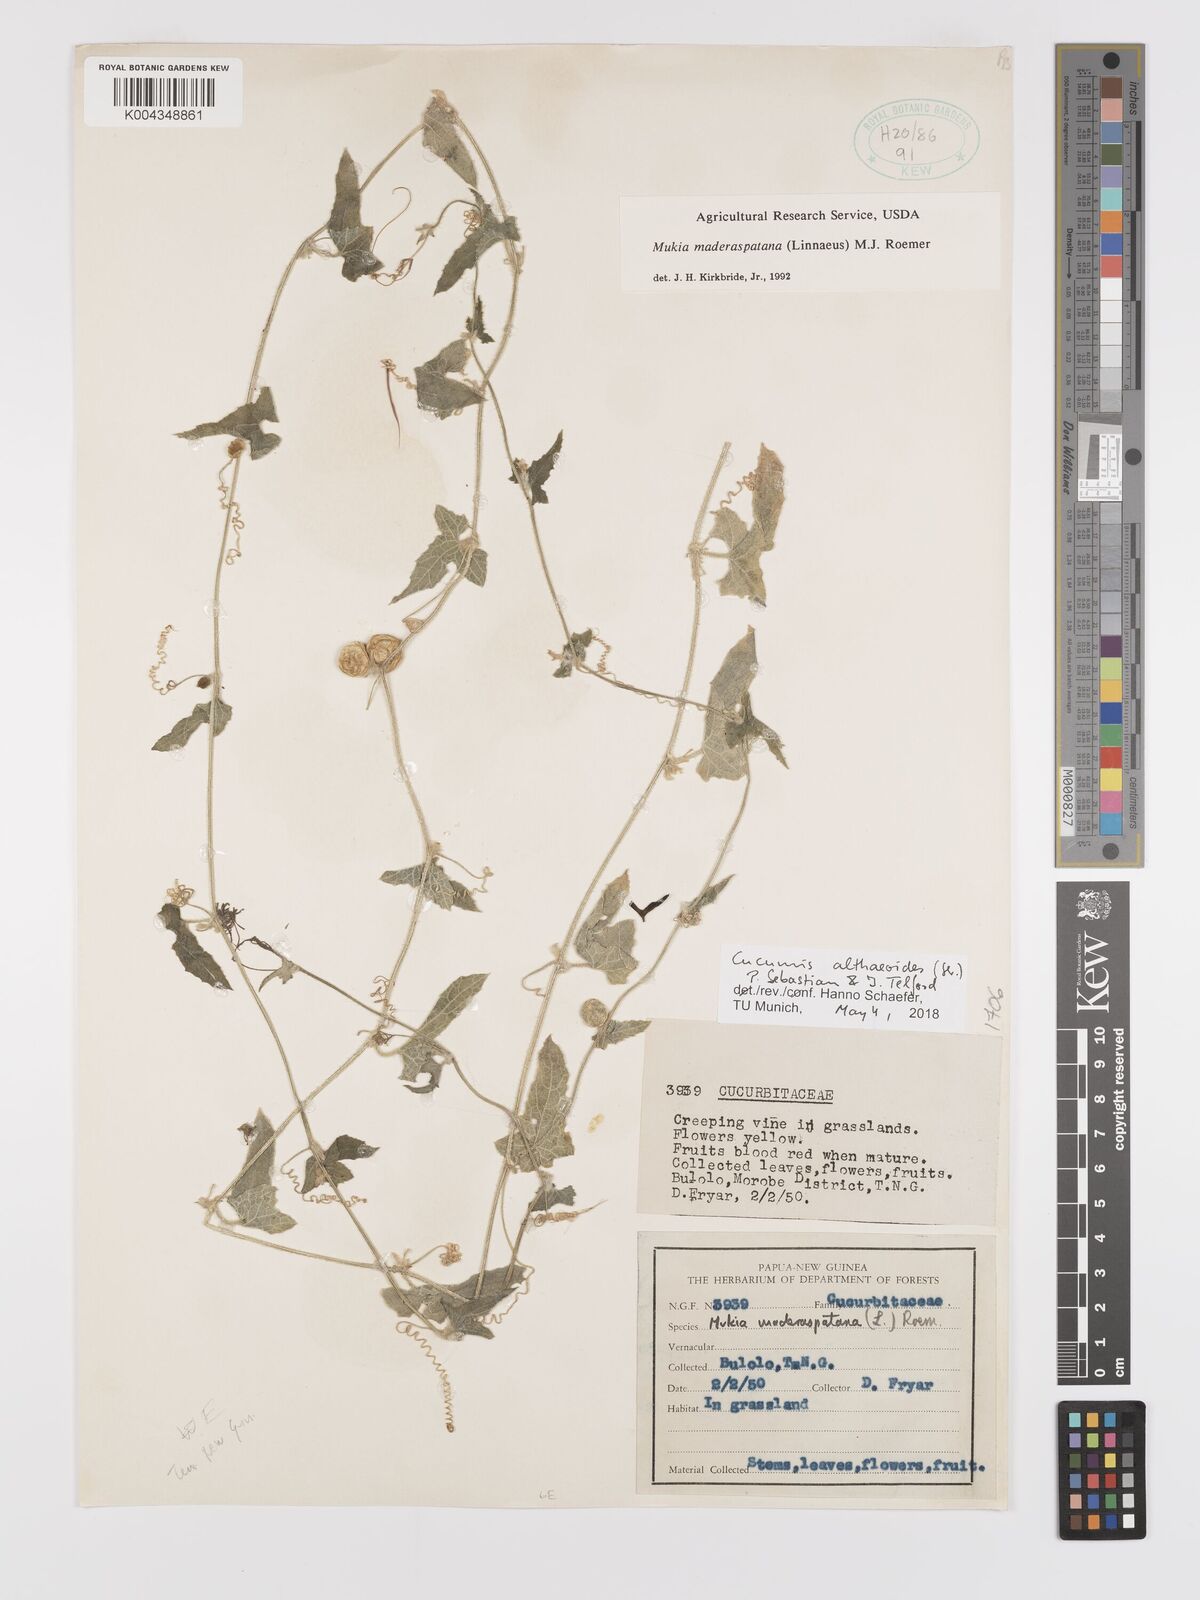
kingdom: Plantae
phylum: Tracheophyta
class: Magnoliopsida
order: Cucurbitales
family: Cucurbitaceae
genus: Cucumis
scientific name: Cucumis maderaspatanus
